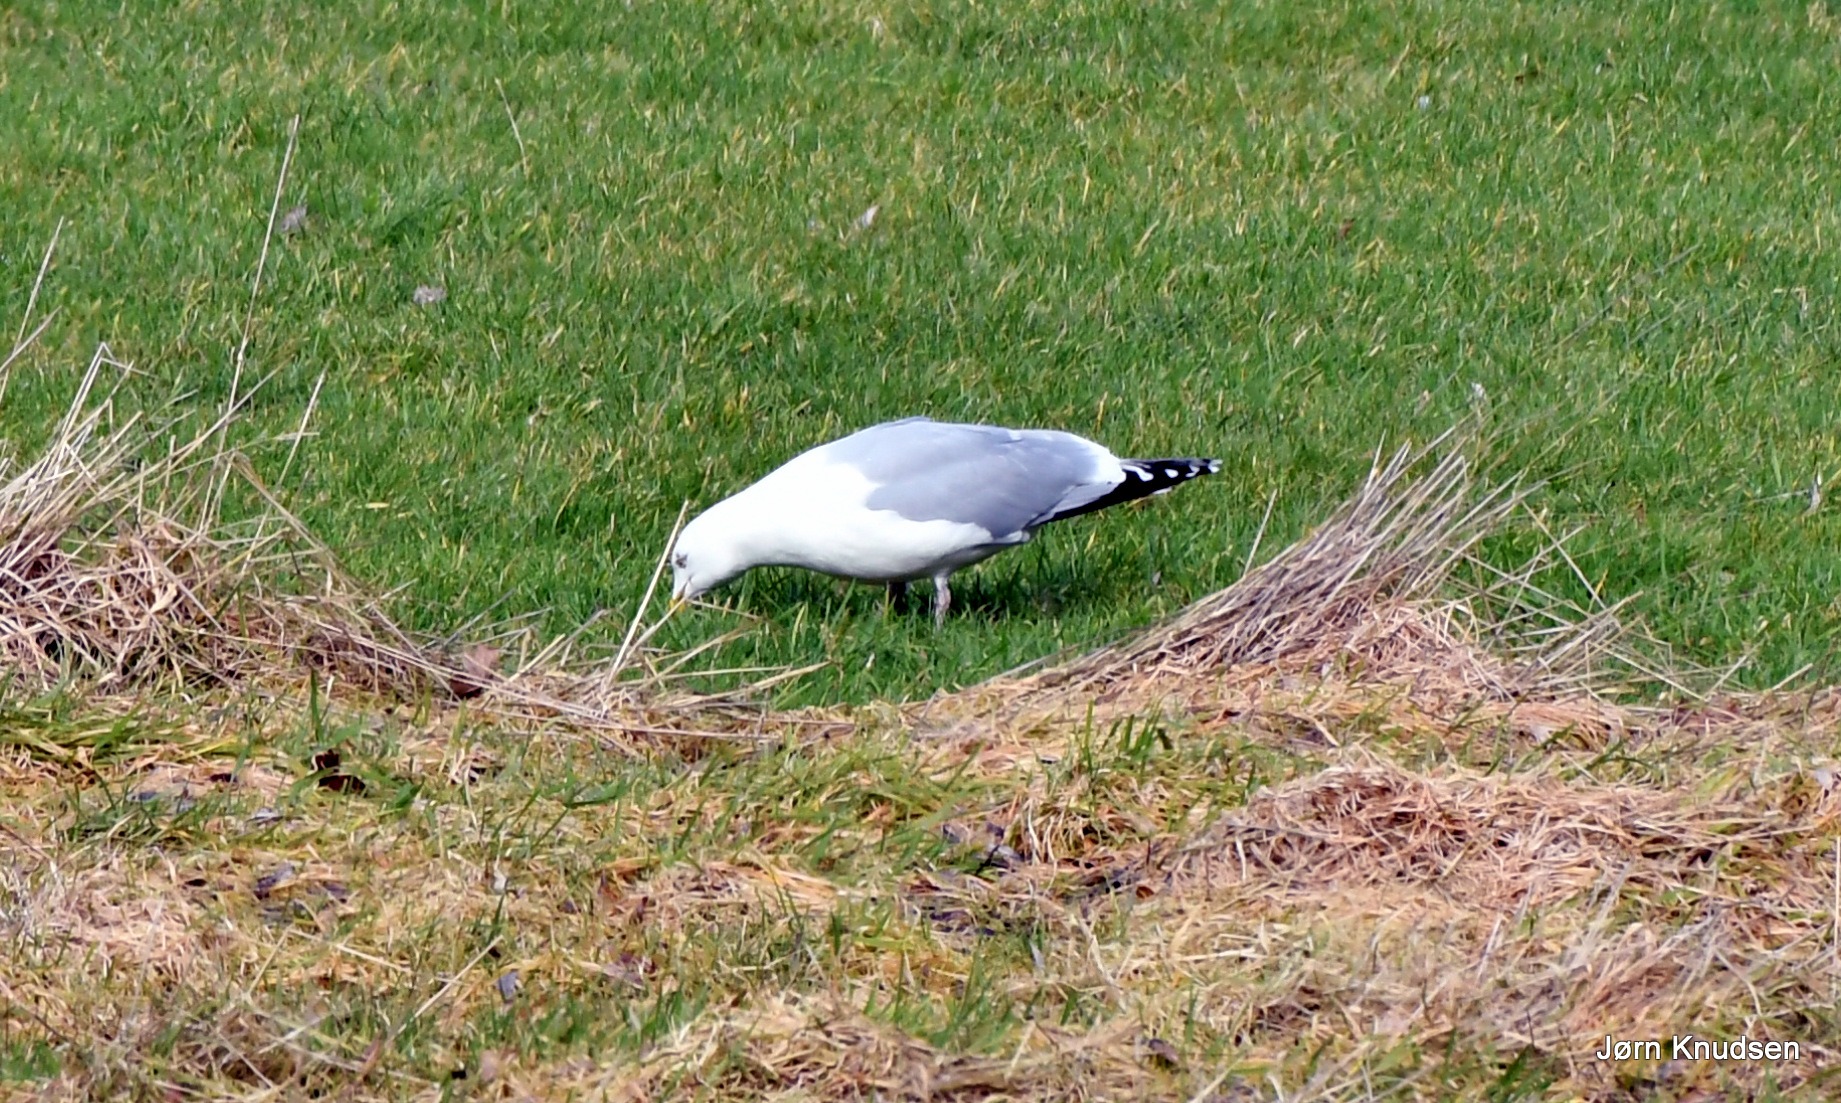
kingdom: Animalia
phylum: Chordata
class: Aves
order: Charadriiformes
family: Laridae
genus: Larus
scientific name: Larus argentatus
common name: Sølvmåge
